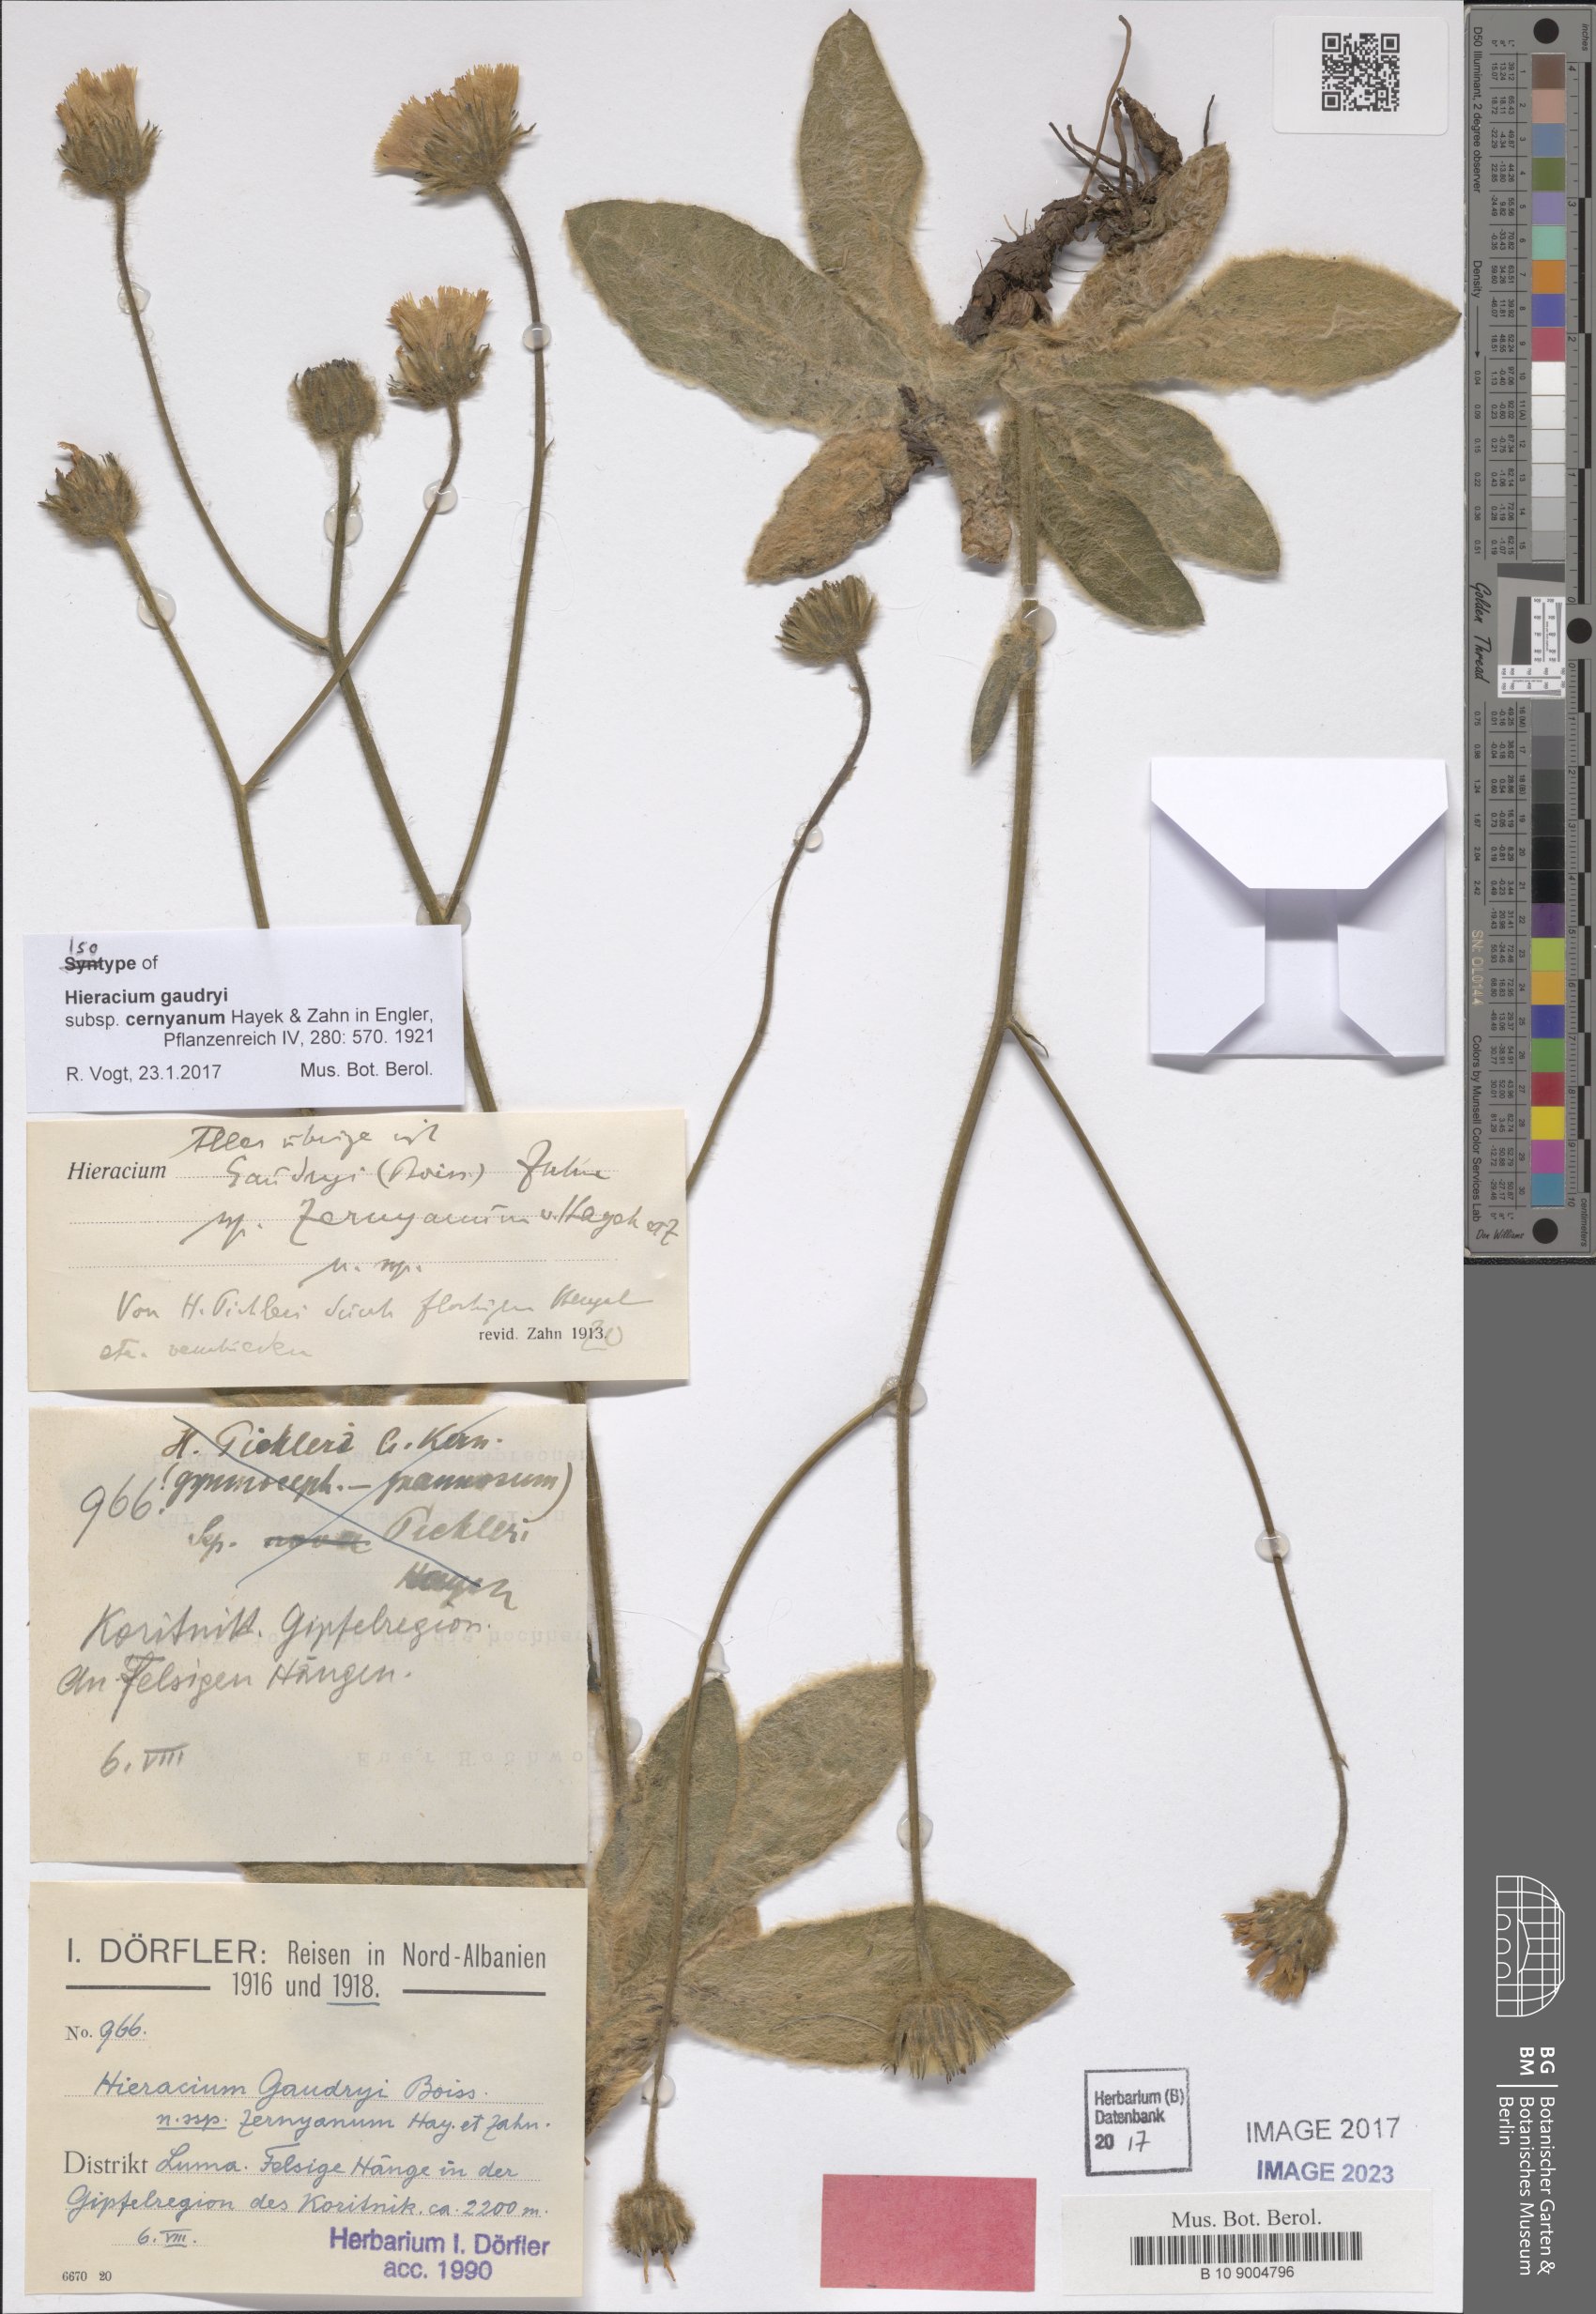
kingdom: Plantae
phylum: Tracheophyta
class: Magnoliopsida
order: Asterales
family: Asteraceae
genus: Hieracium
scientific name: Hieracium gaudryi
